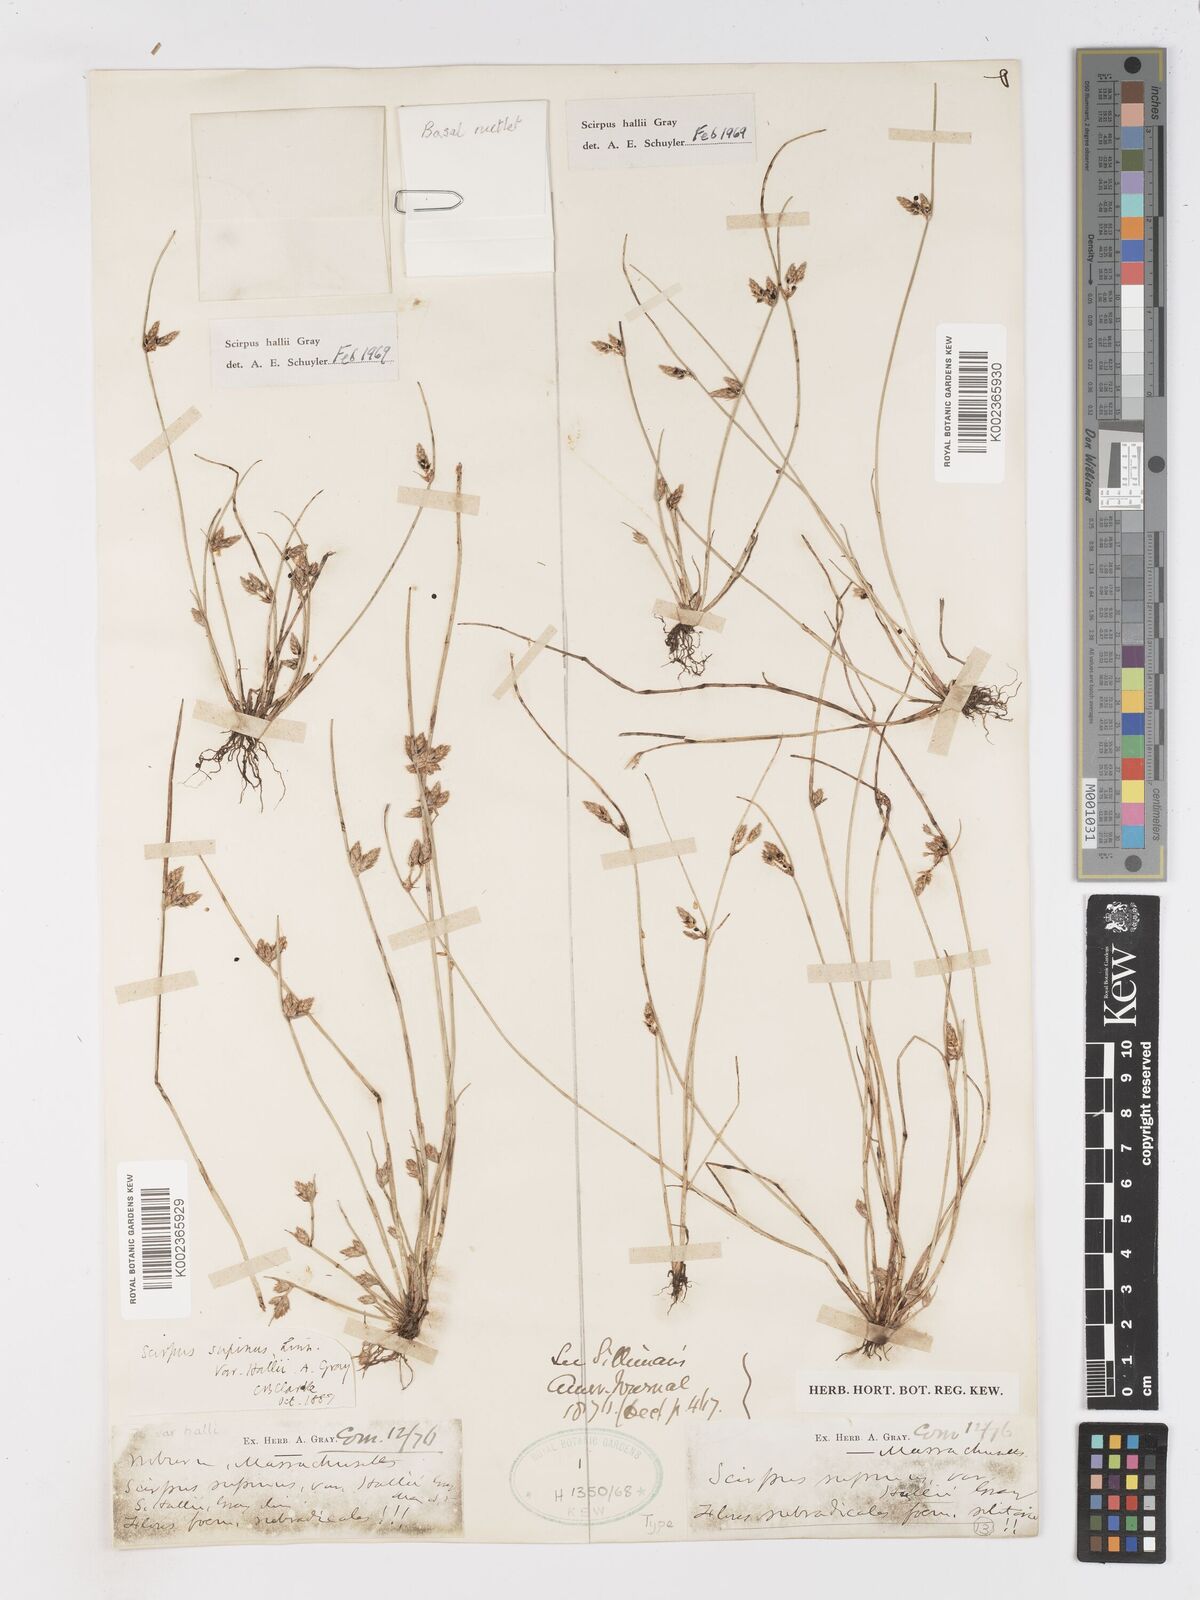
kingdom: Plantae
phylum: Tracheophyta
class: Liliopsida
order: Poales
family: Cyperaceae
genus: Schoenoplectiella
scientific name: Schoenoplectiella hallii
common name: Hall's bullrush
